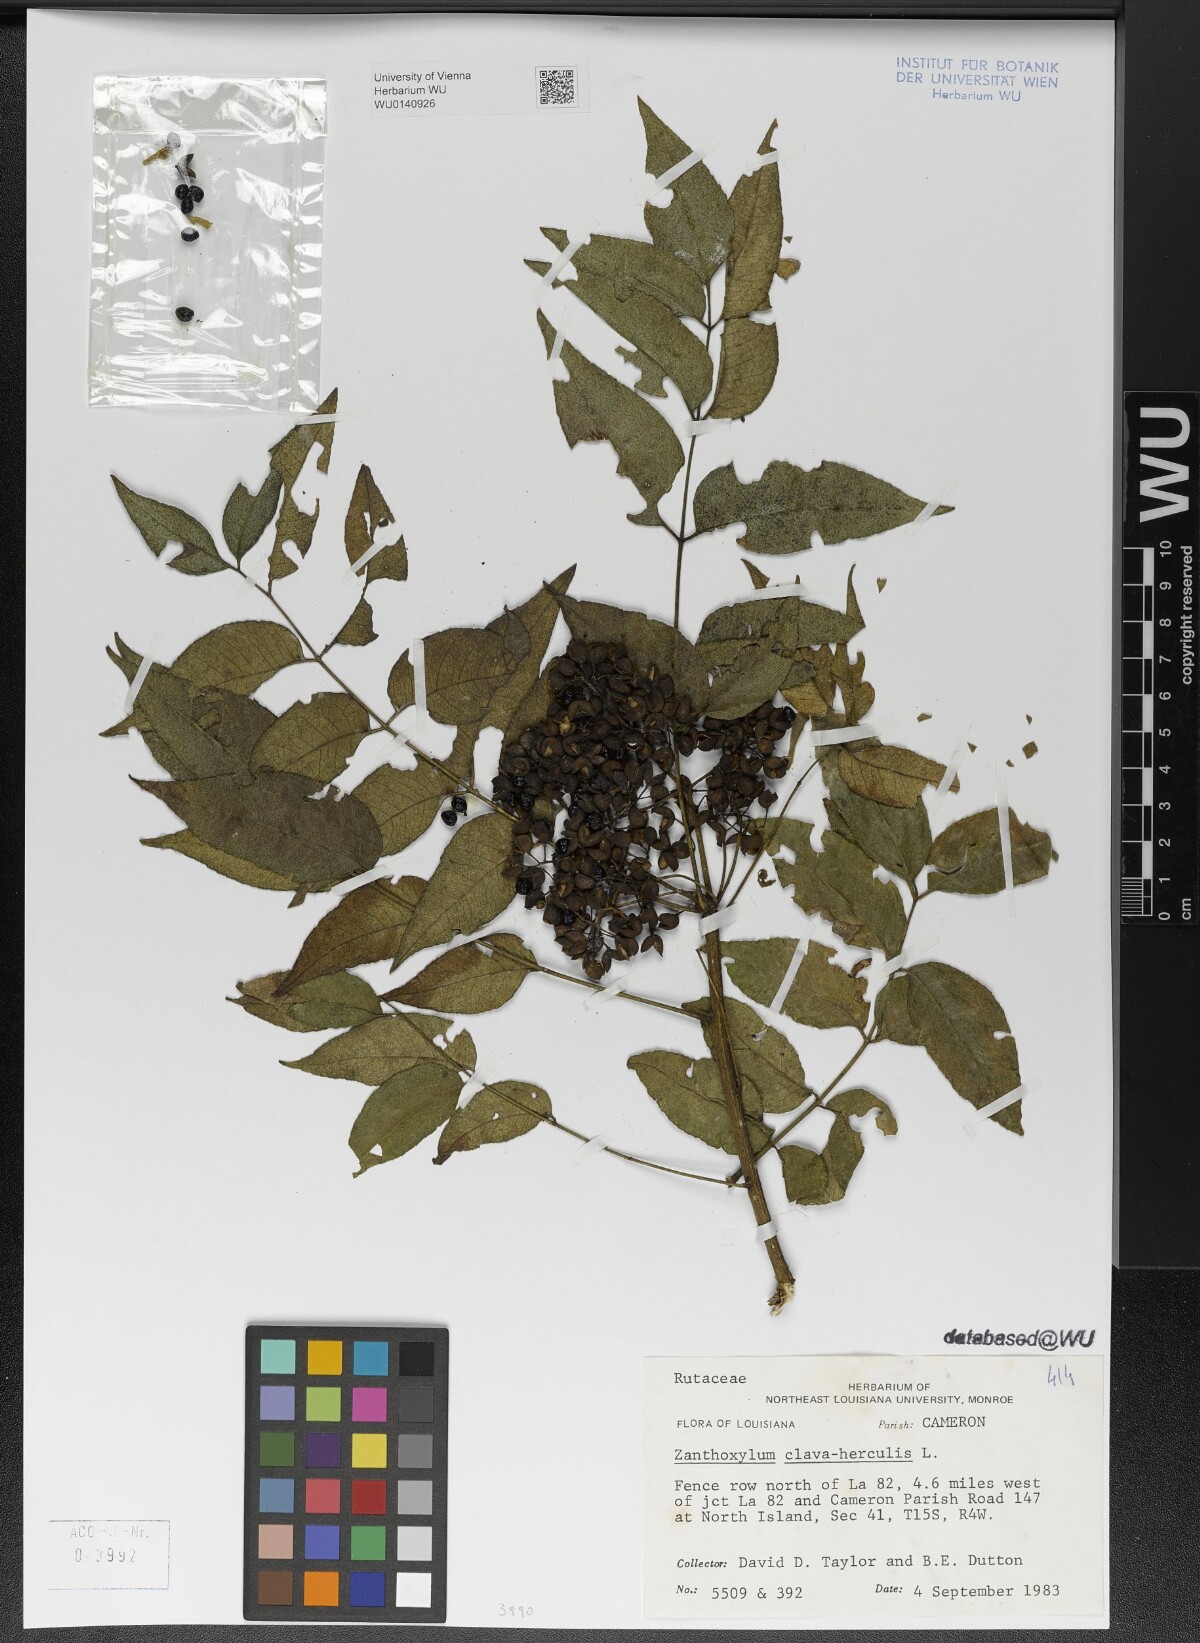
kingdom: Plantae
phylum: Tracheophyta
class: Magnoliopsida
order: Sapindales
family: Rutaceae
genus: Zanthoxylum
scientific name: Zanthoxylum clava-herculis
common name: Hercules'-club
